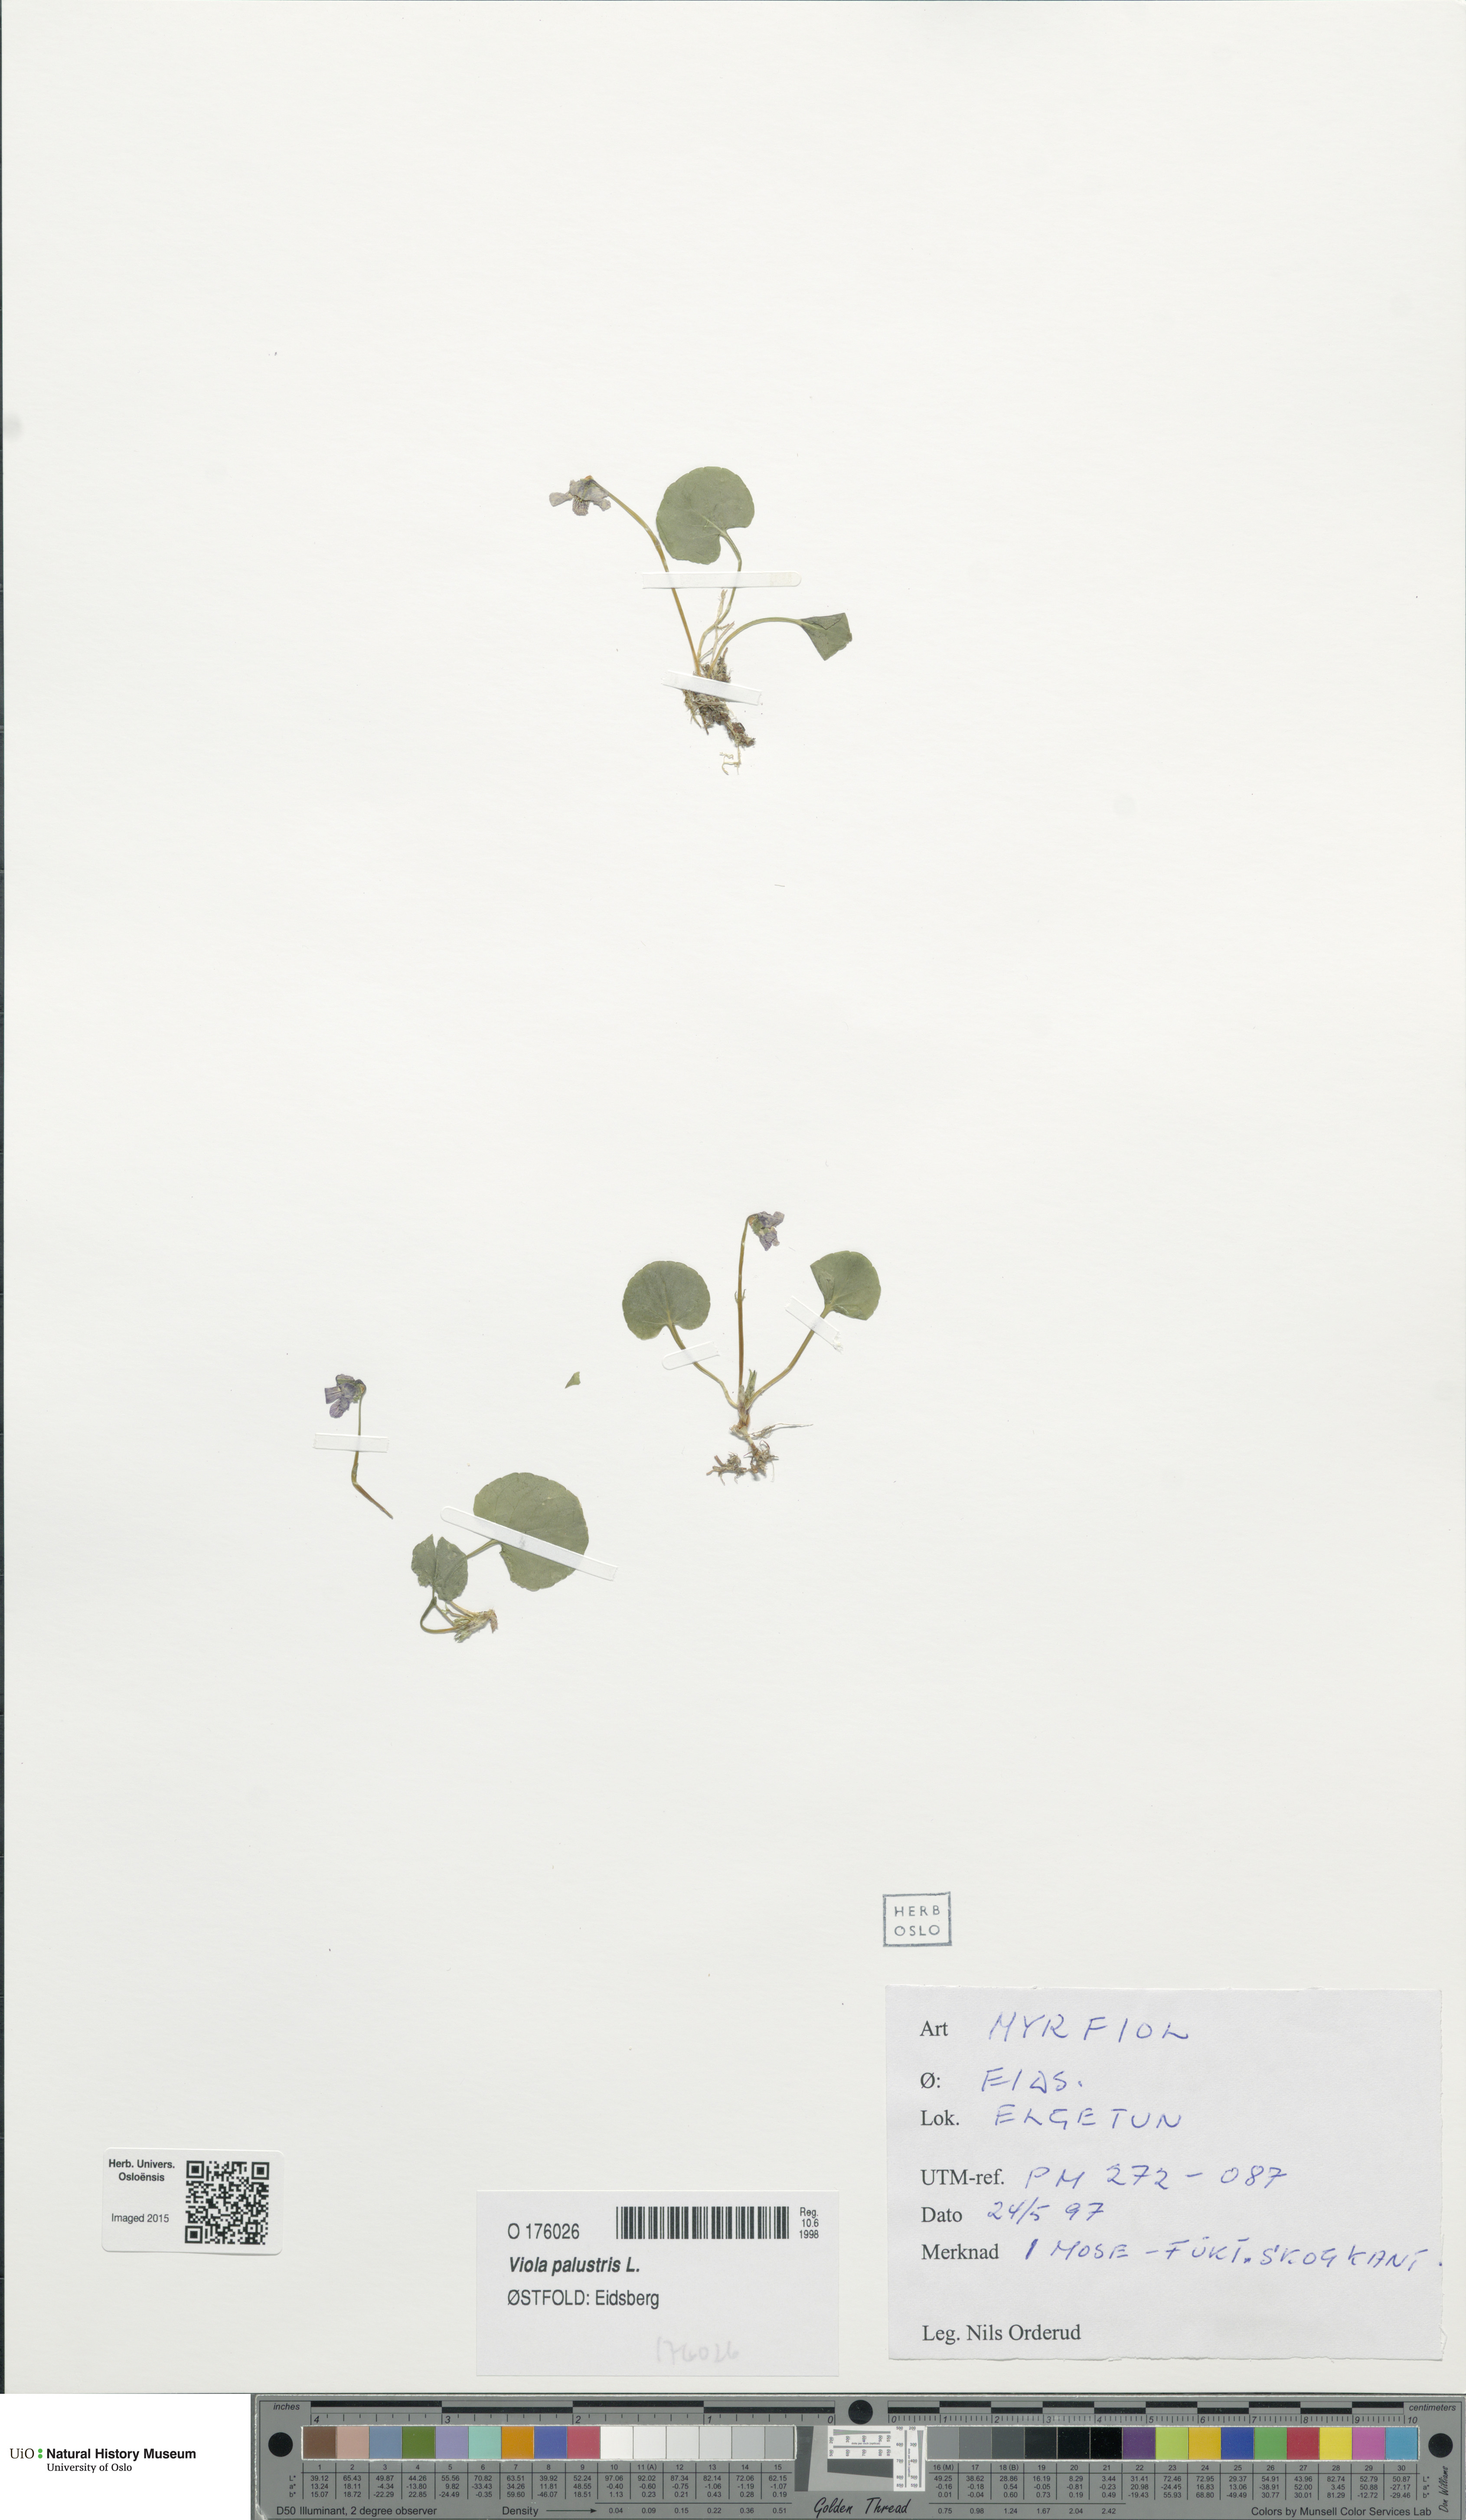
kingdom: Plantae
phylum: Tracheophyta
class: Magnoliopsida
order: Malpighiales
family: Violaceae
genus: Viola
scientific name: Viola palustris
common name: Marsh violet
